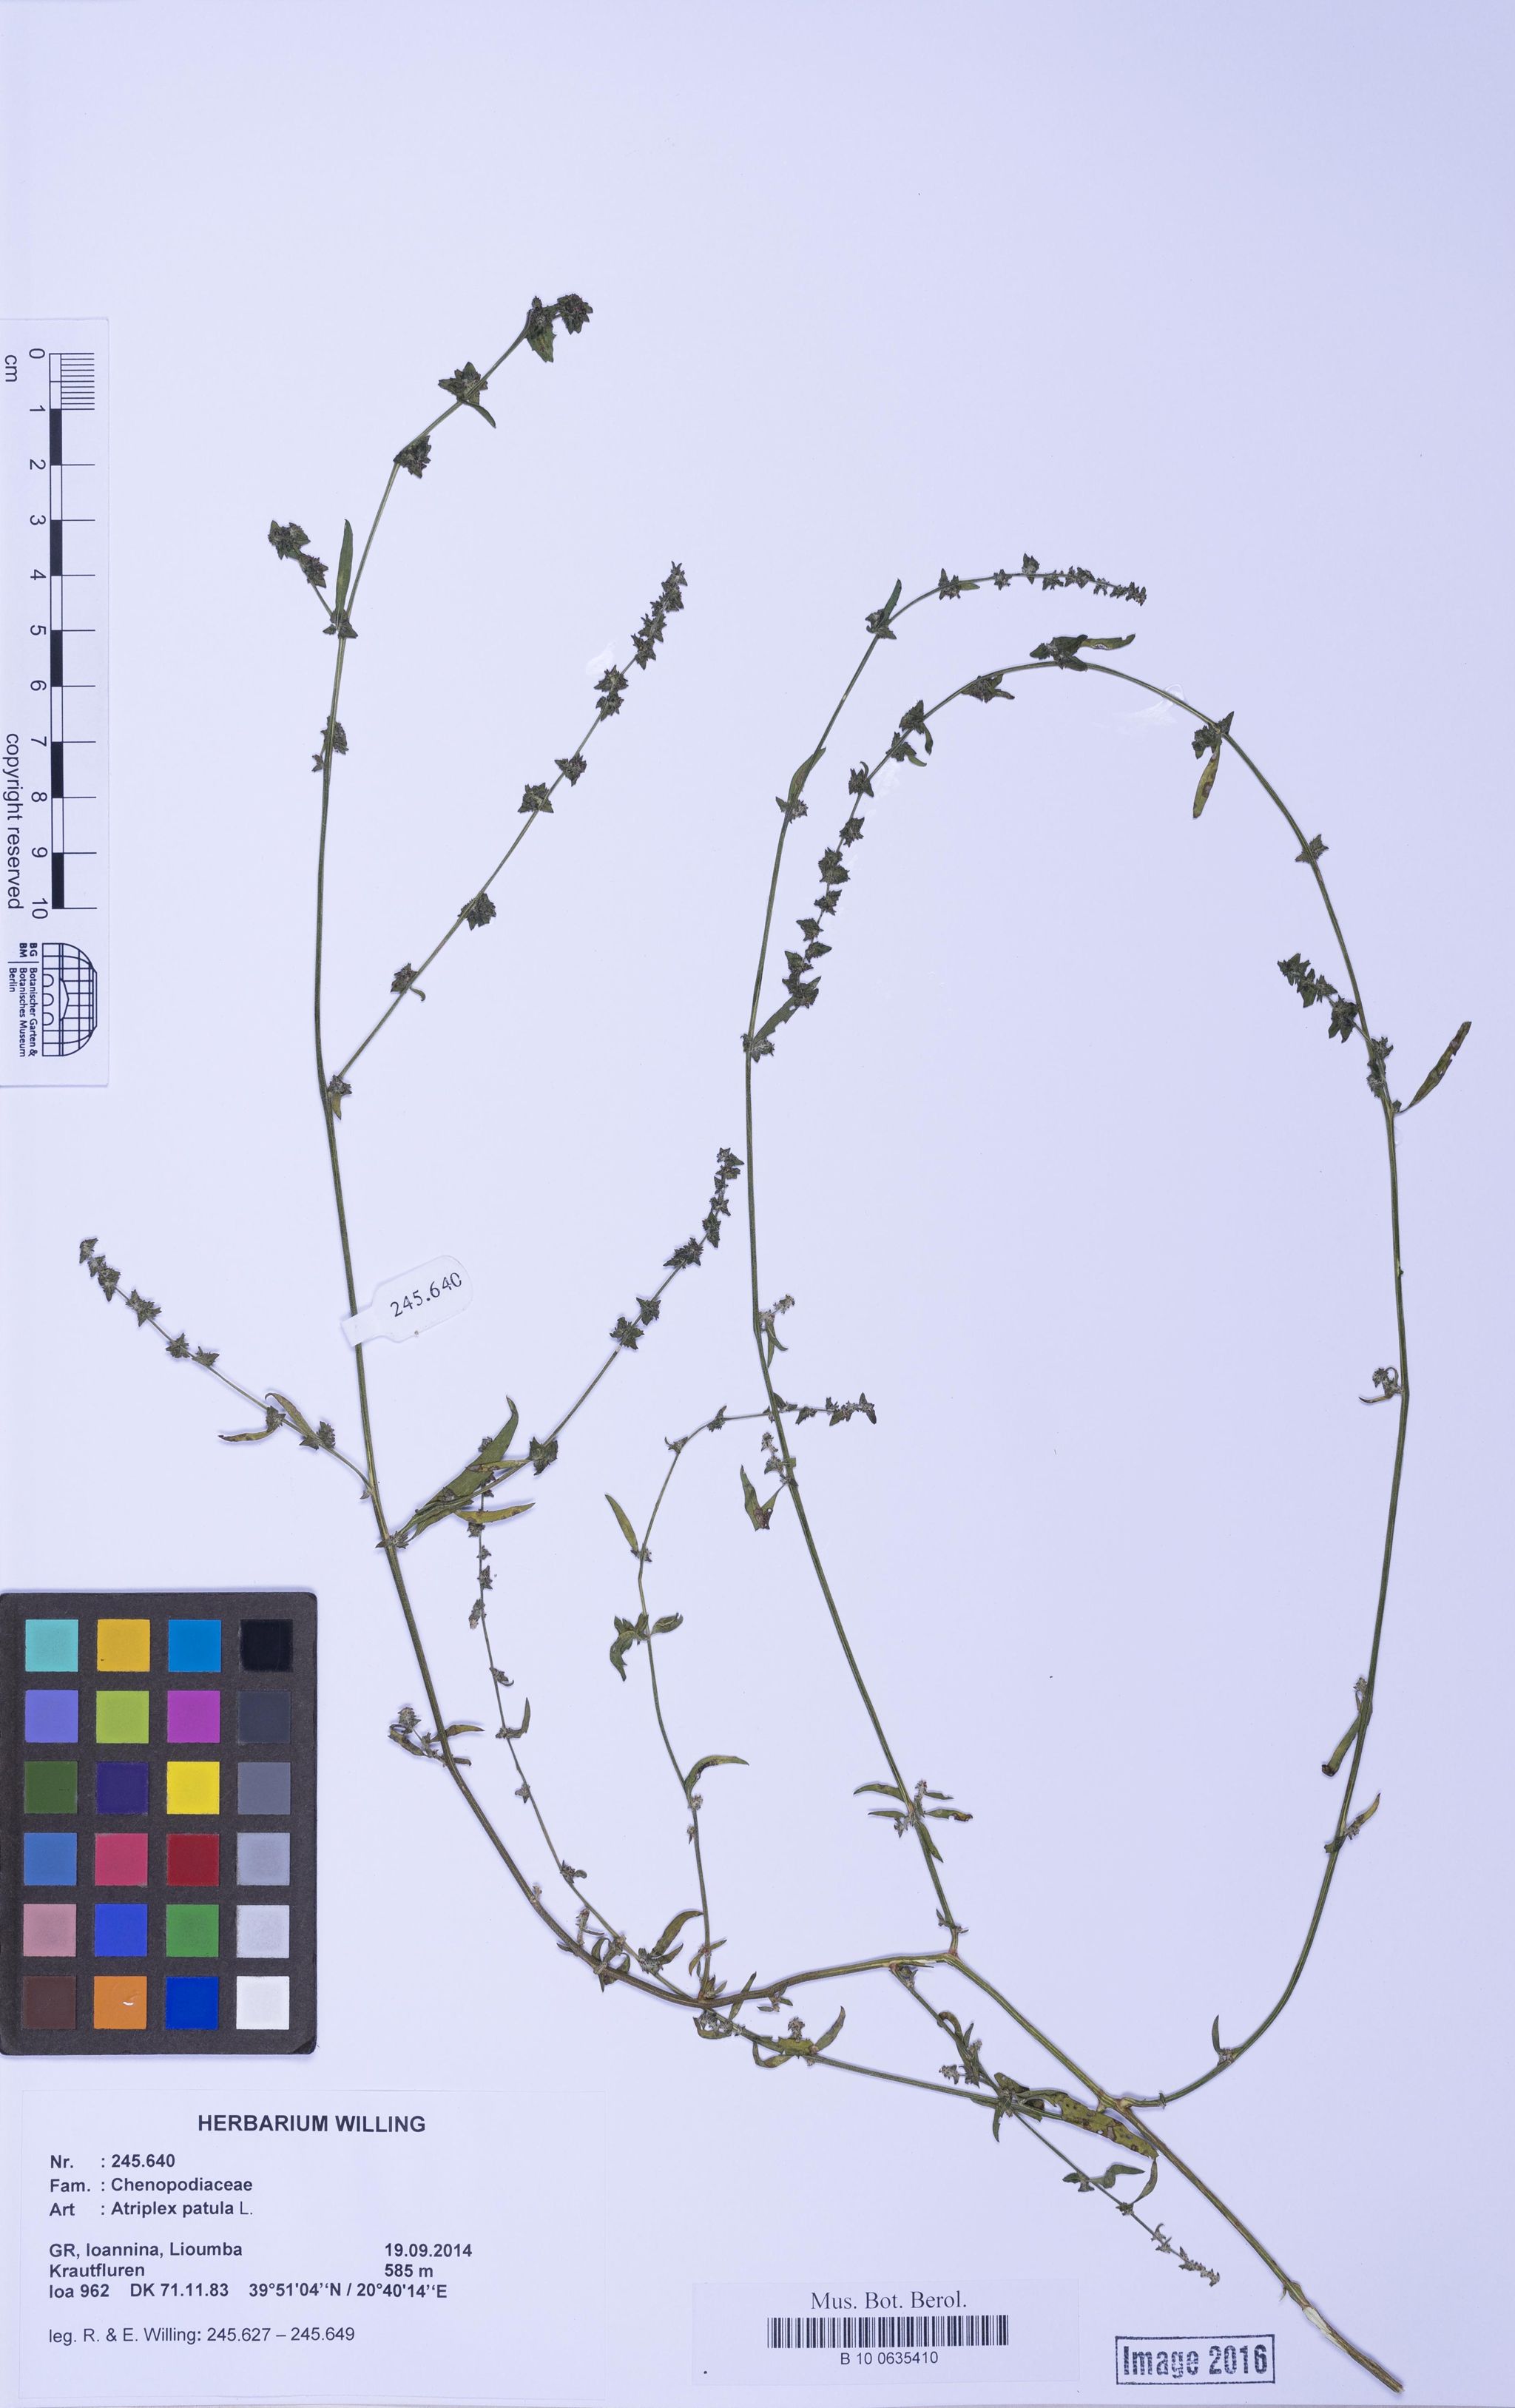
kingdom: Plantae
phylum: Tracheophyta
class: Magnoliopsida
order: Caryophyllales
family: Amaranthaceae
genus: Atriplex
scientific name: Atriplex patula
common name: Common orache
